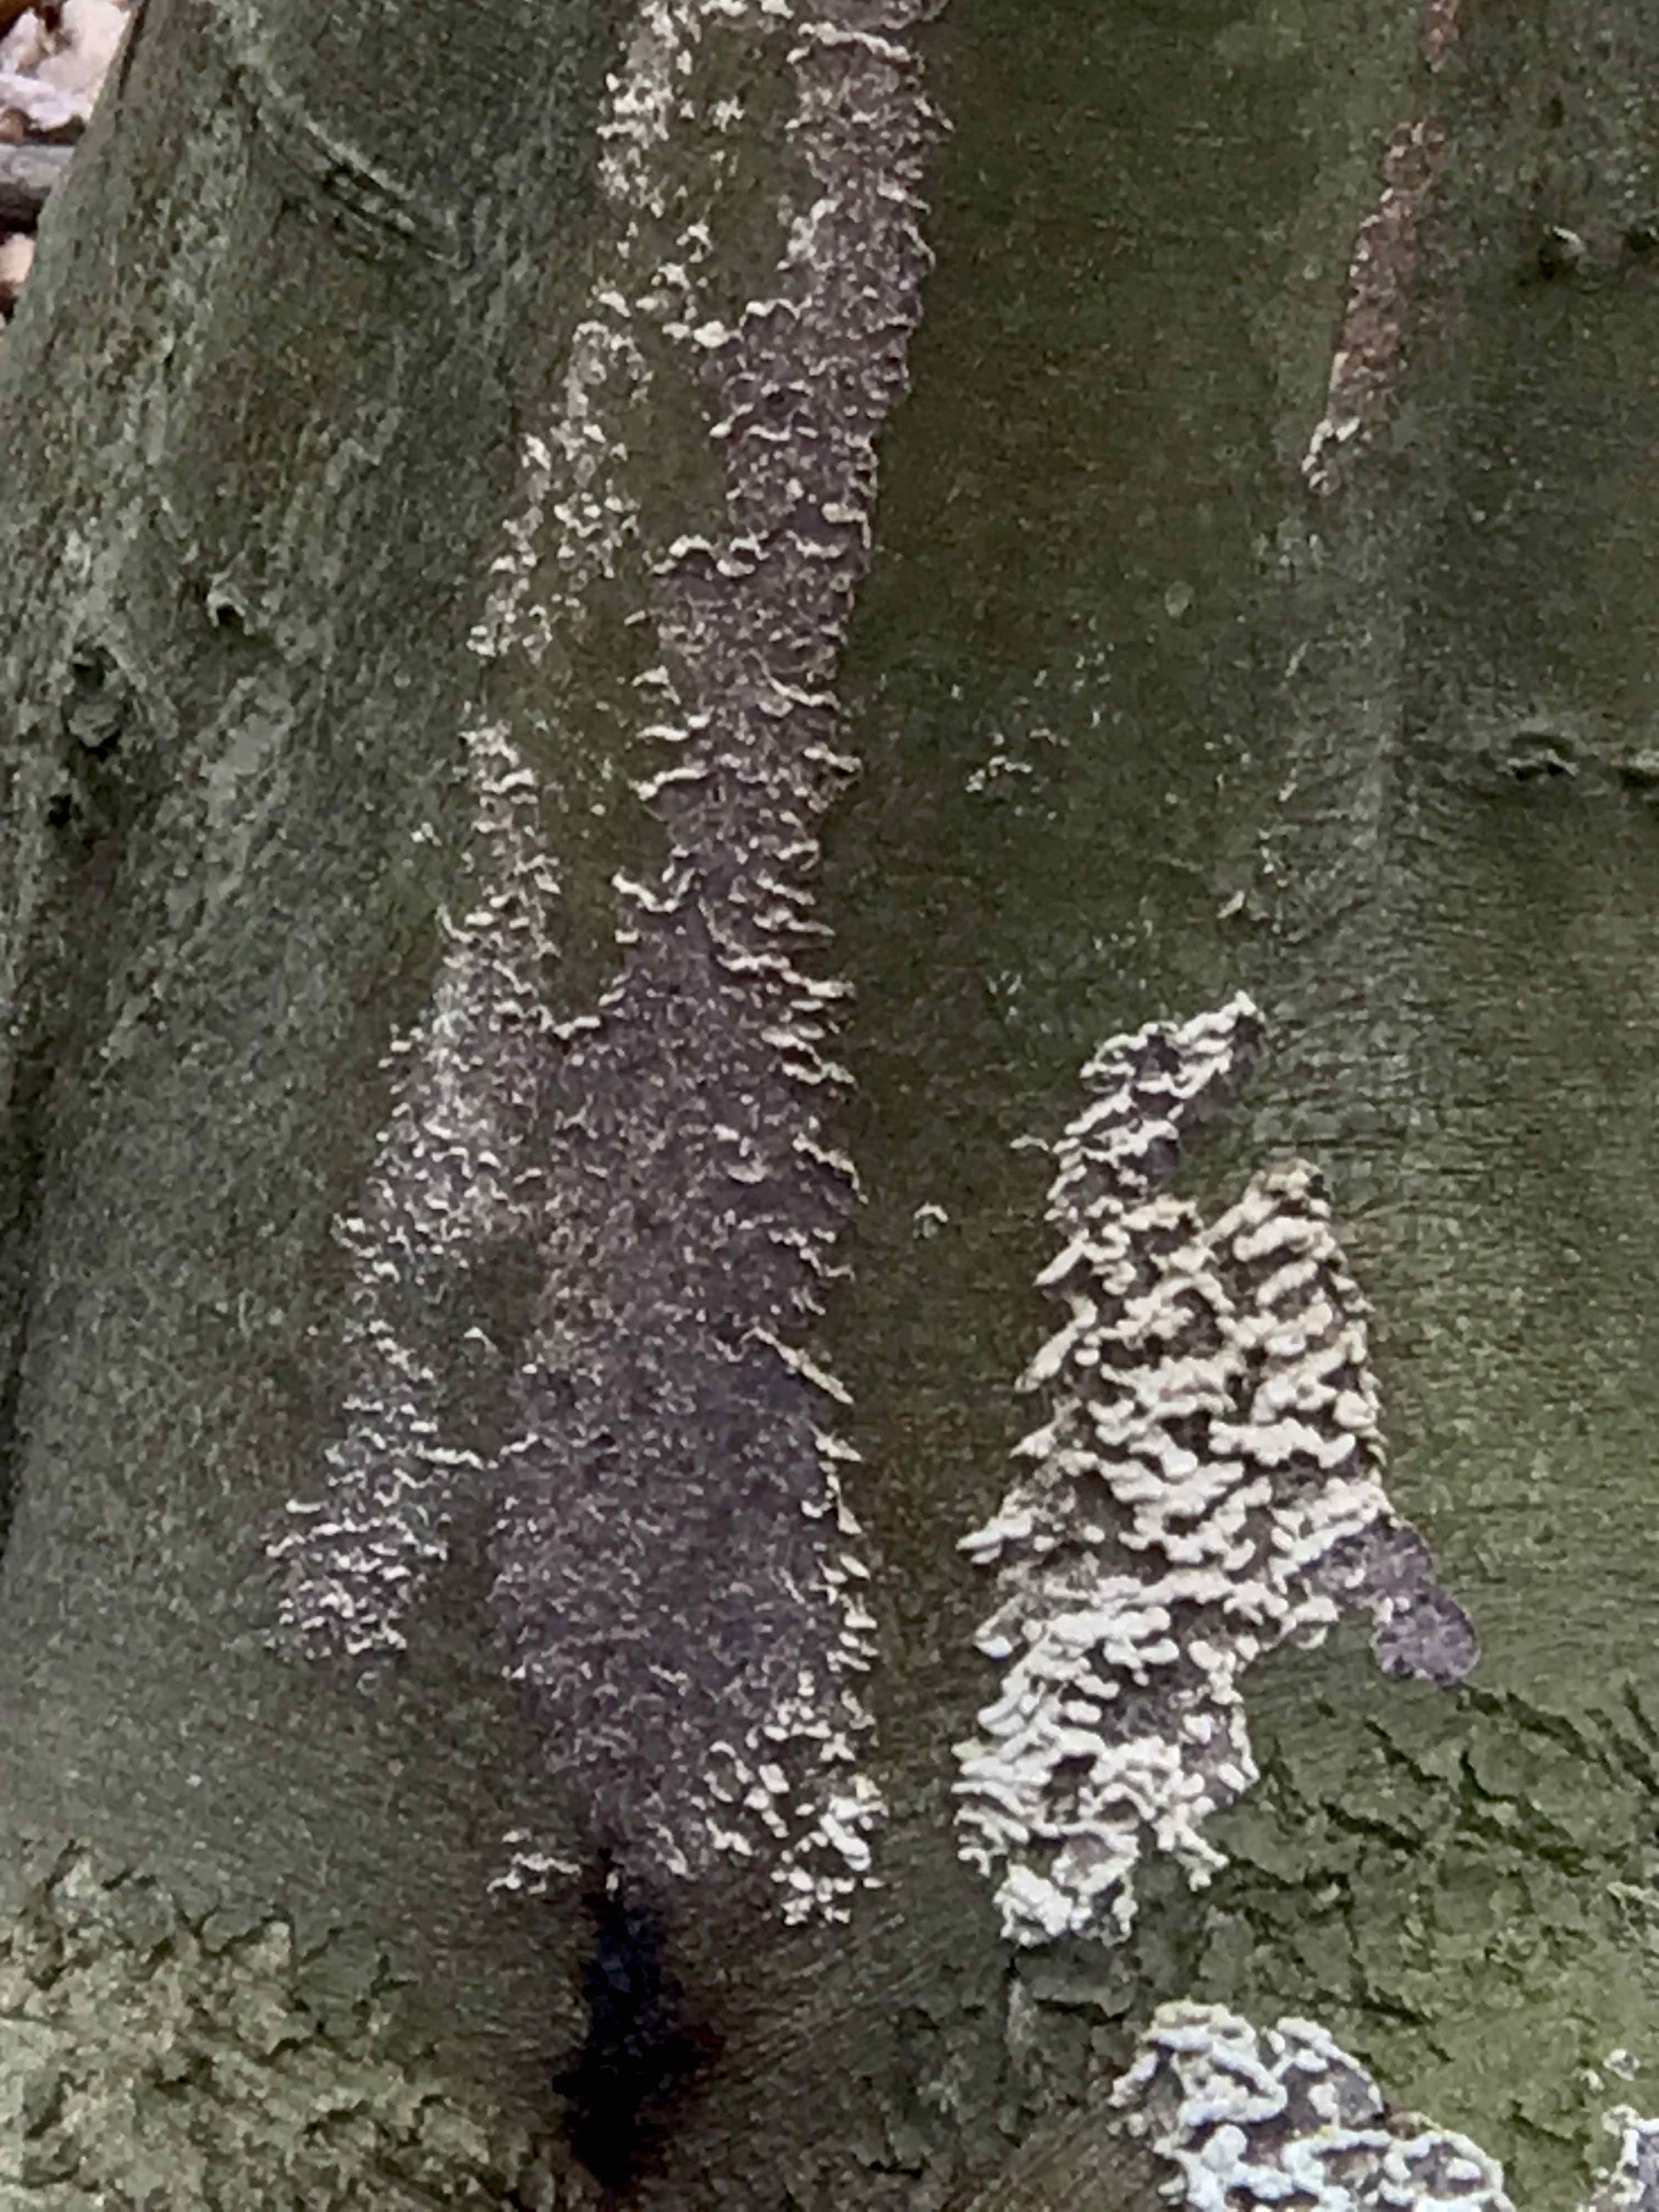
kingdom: Fungi
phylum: Basidiomycota
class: Agaricomycetes
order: Agaricales
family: Cyphellaceae
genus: Chondrostereum
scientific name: Chondrostereum purpureum
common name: purpurlædersvamp
